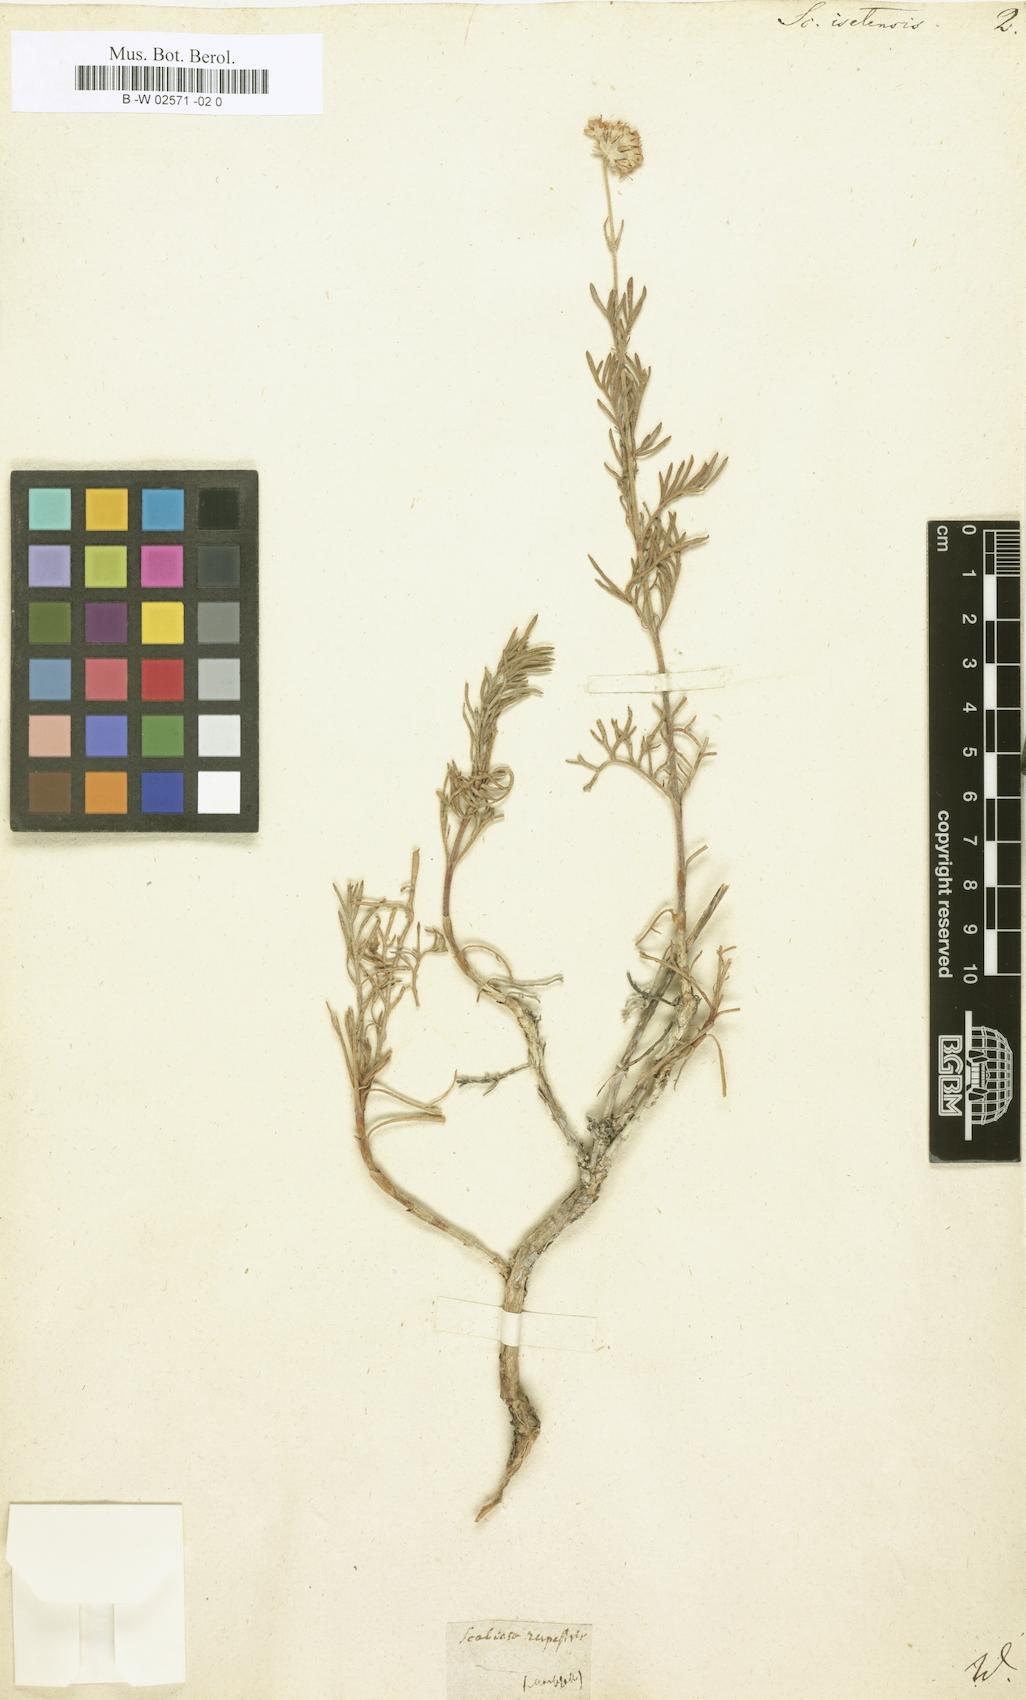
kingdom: Plantae
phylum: Tracheophyta
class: Magnoliopsida
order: Dipsacales
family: Caprifoliaceae
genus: Lomelosia
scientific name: Lomelosia
